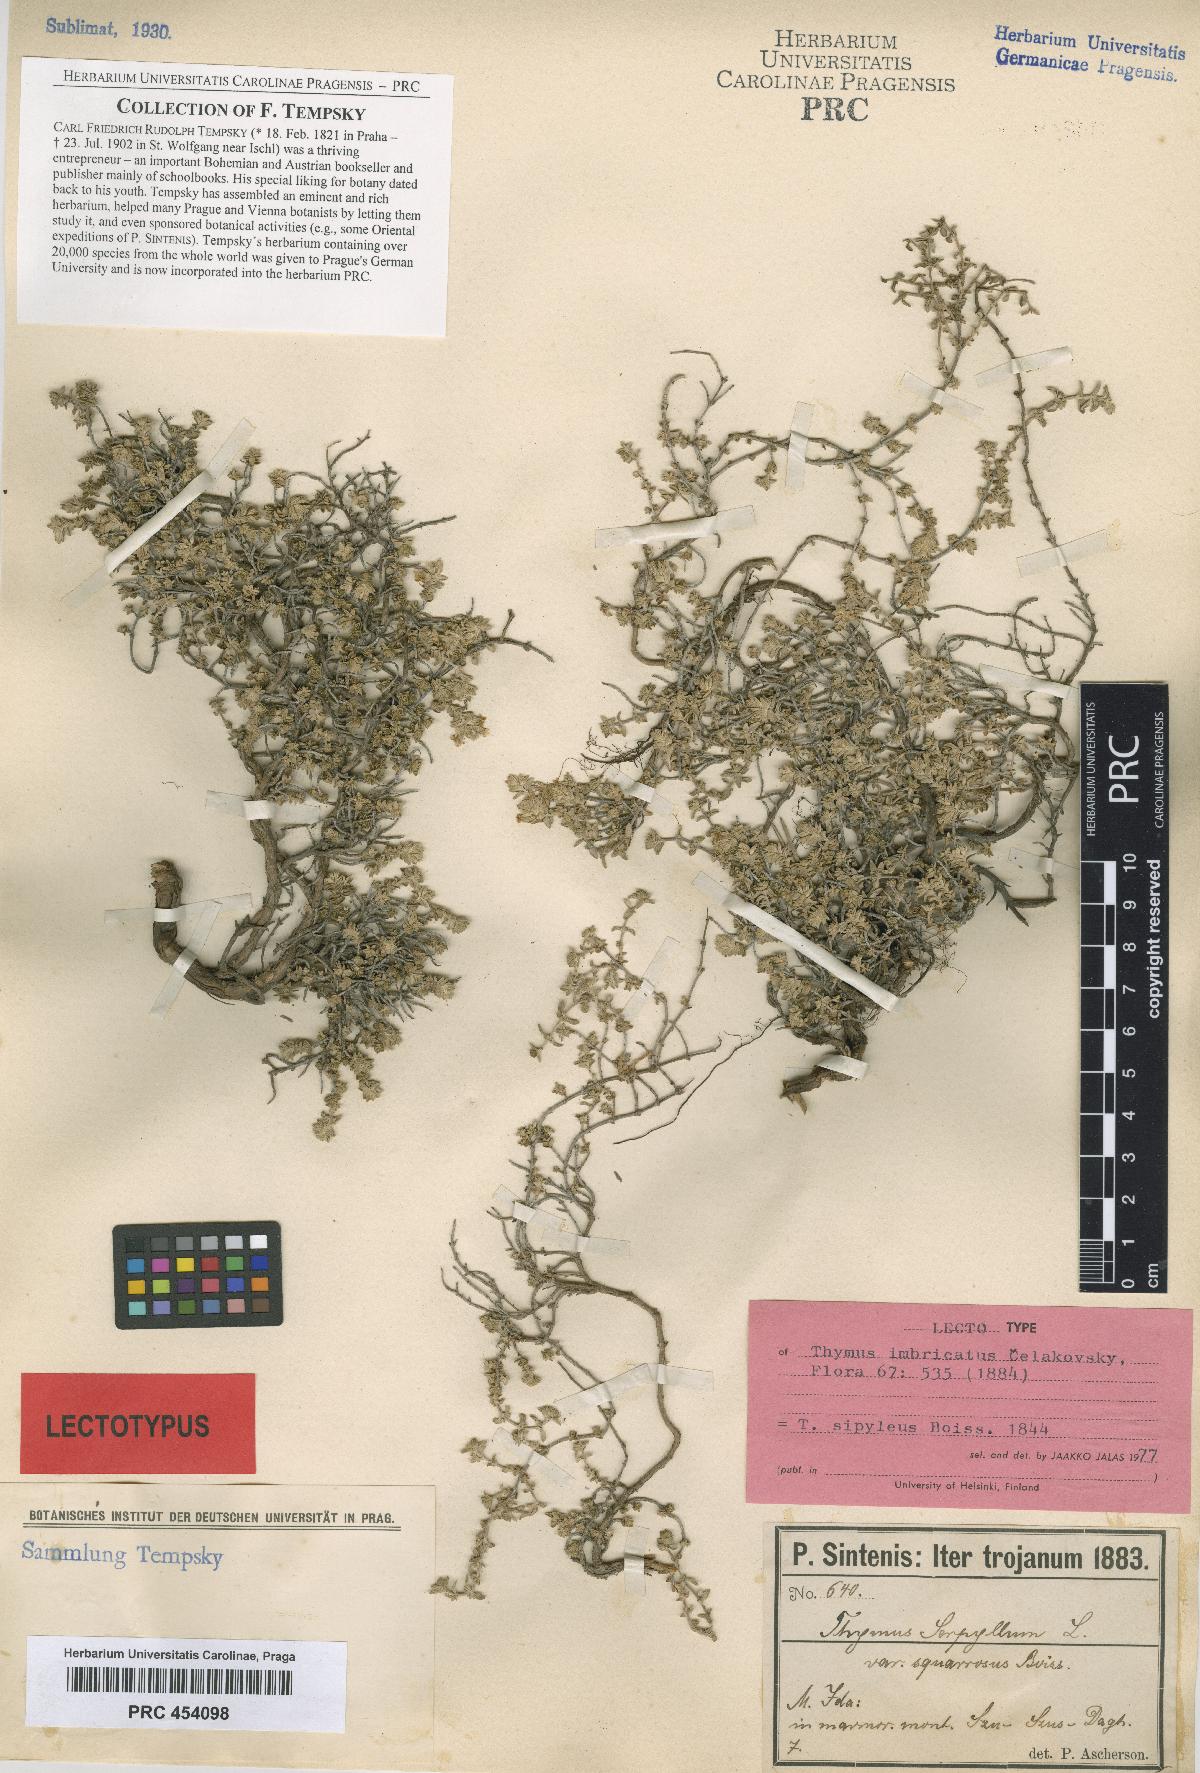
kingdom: Plantae
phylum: Tracheophyta
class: Magnoliopsida
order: Lamiales
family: Lamiaceae
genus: Thymus
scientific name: Thymus sipyleus
